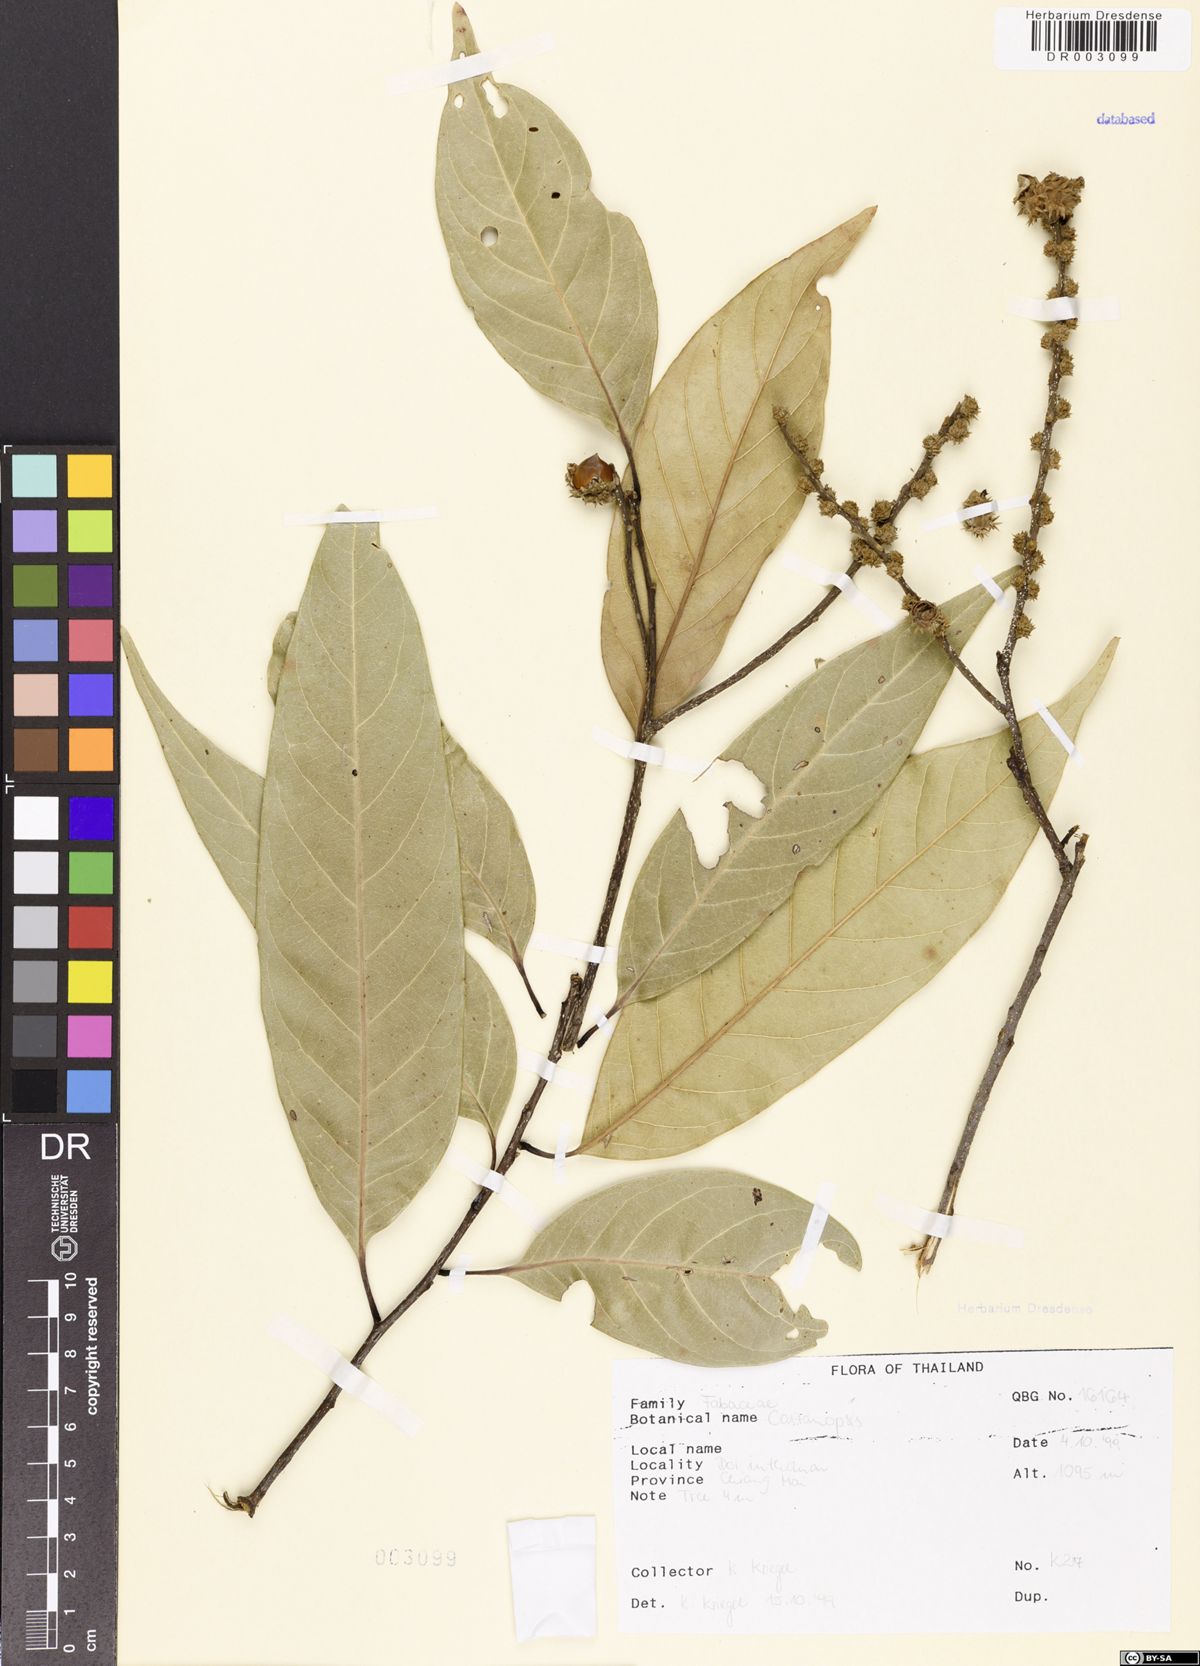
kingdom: Plantae
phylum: Tracheophyta
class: Magnoliopsida
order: Fagales
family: Fagaceae
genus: Castanopsis
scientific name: Castanopsis
